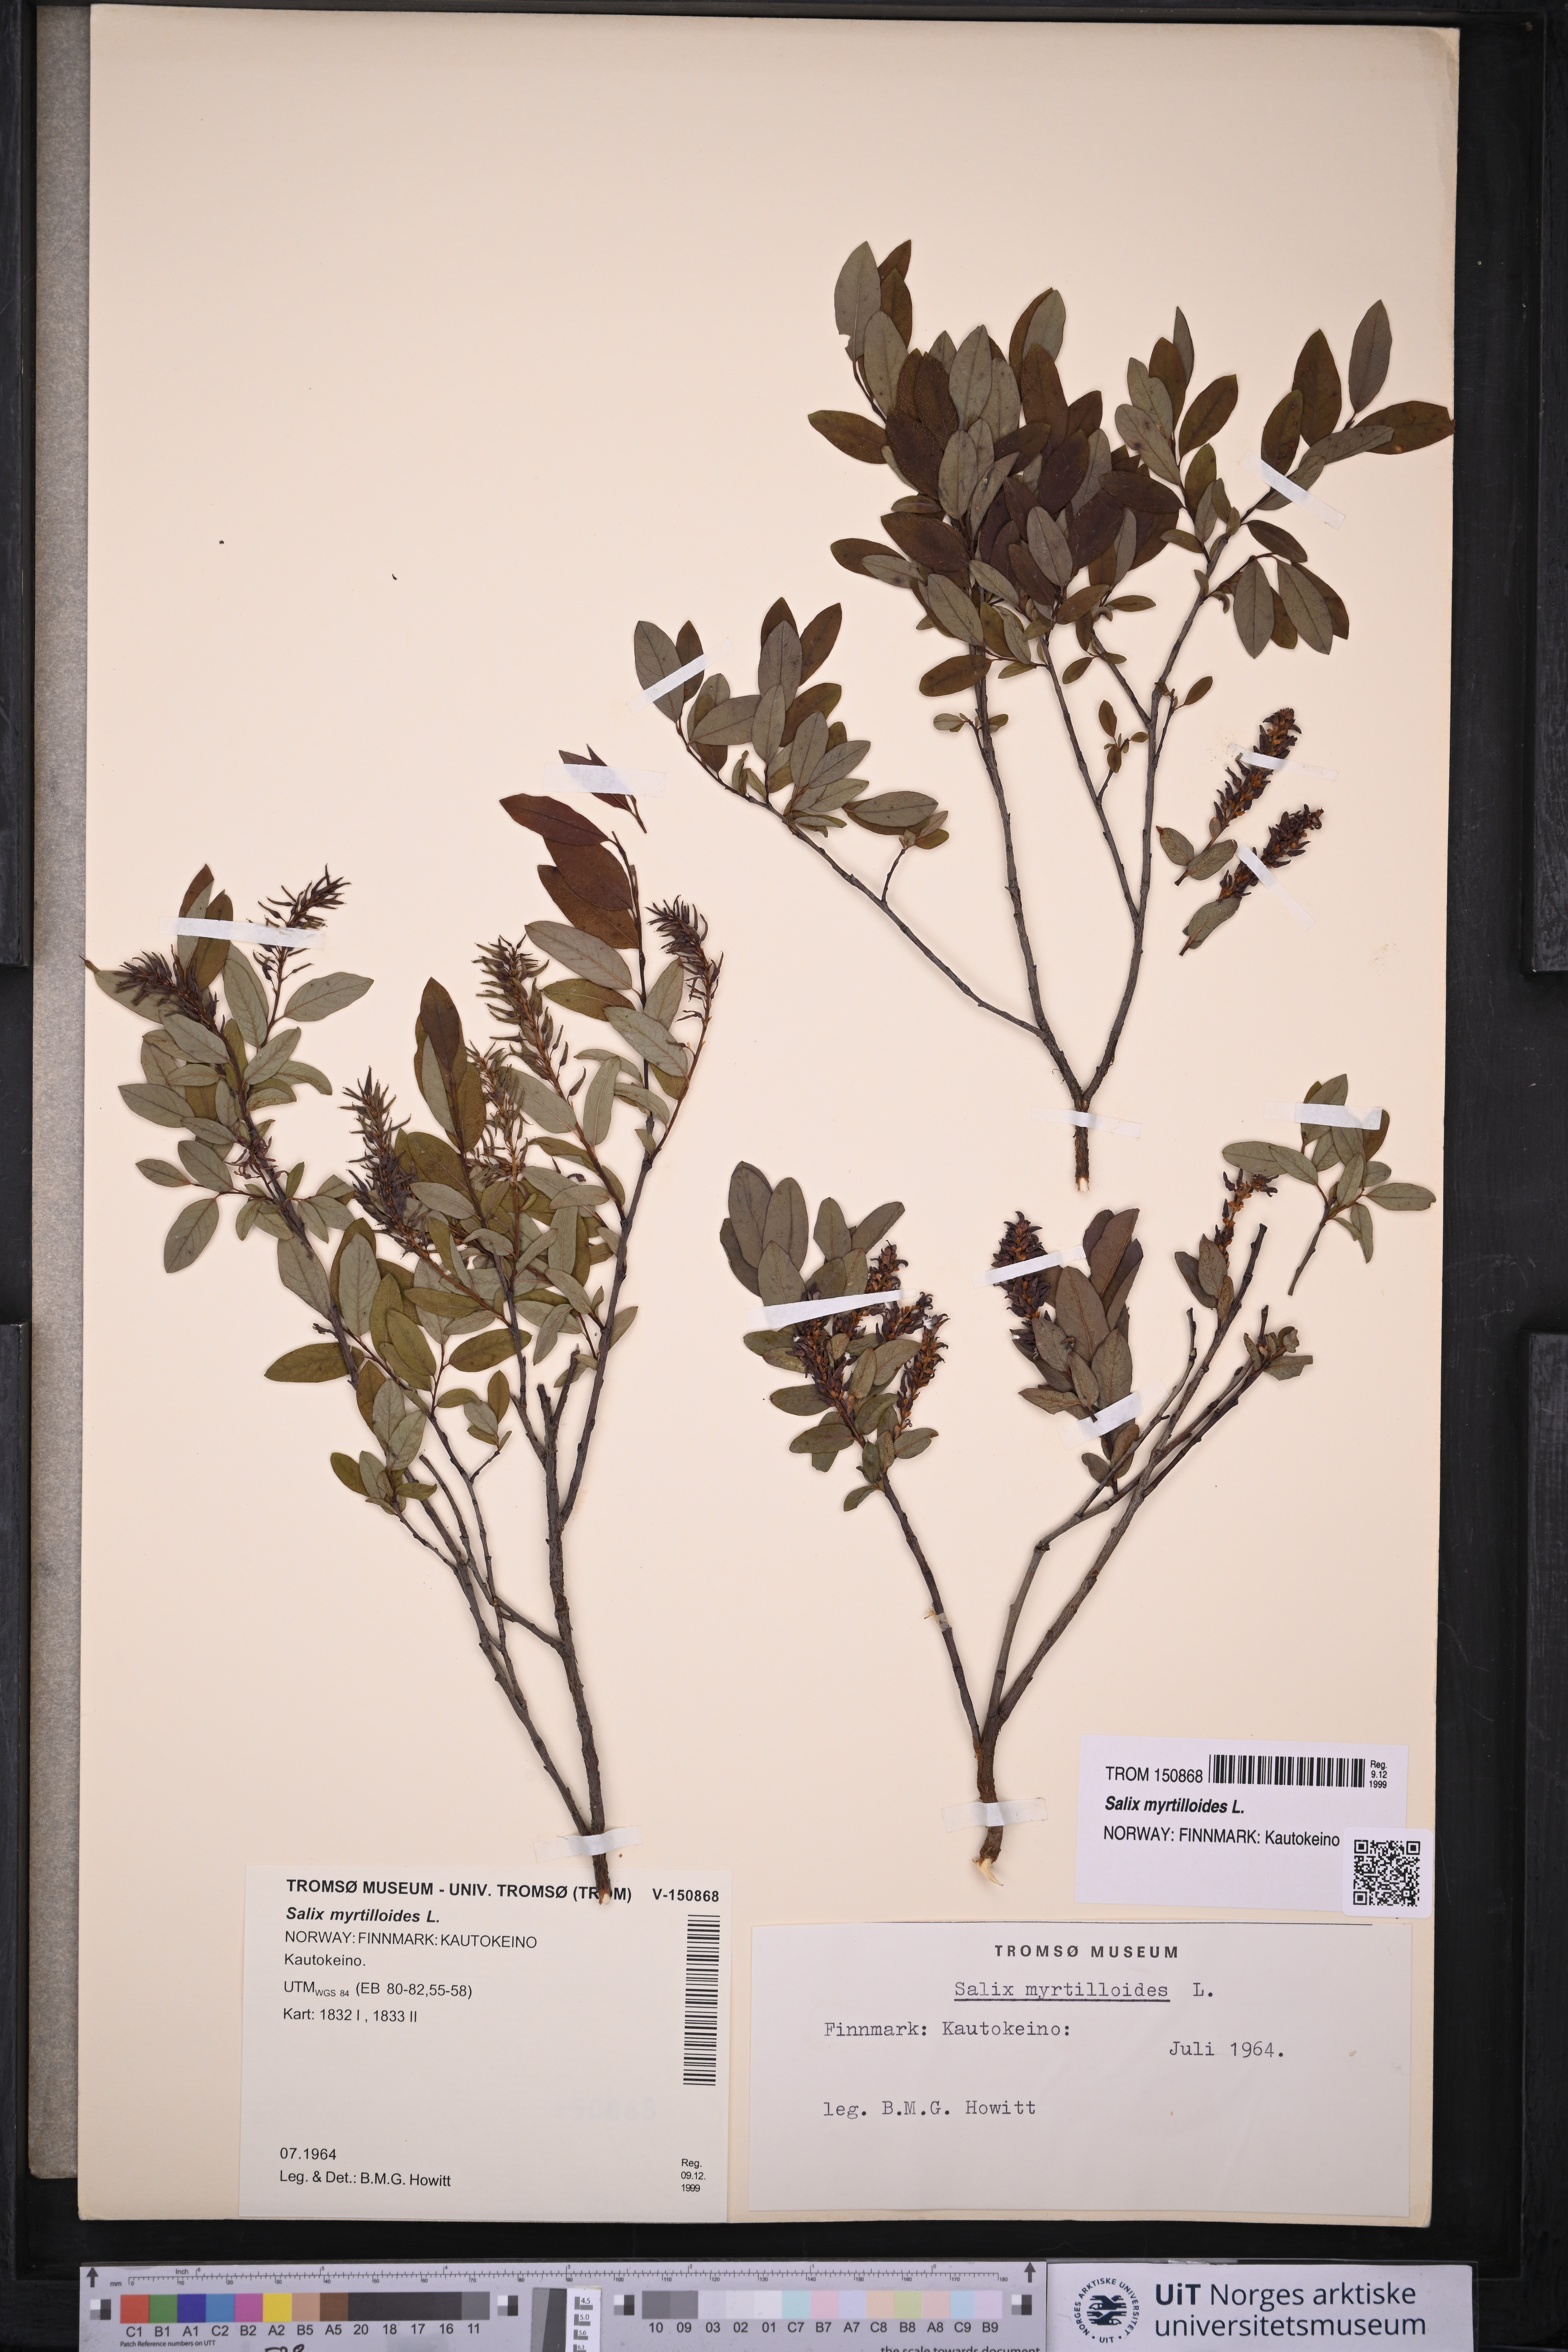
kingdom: Plantae
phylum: Tracheophyta
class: Magnoliopsida
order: Malpighiales
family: Salicaceae
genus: Salix
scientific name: Salix myrtilloides
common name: Myrtle-leaved willow
